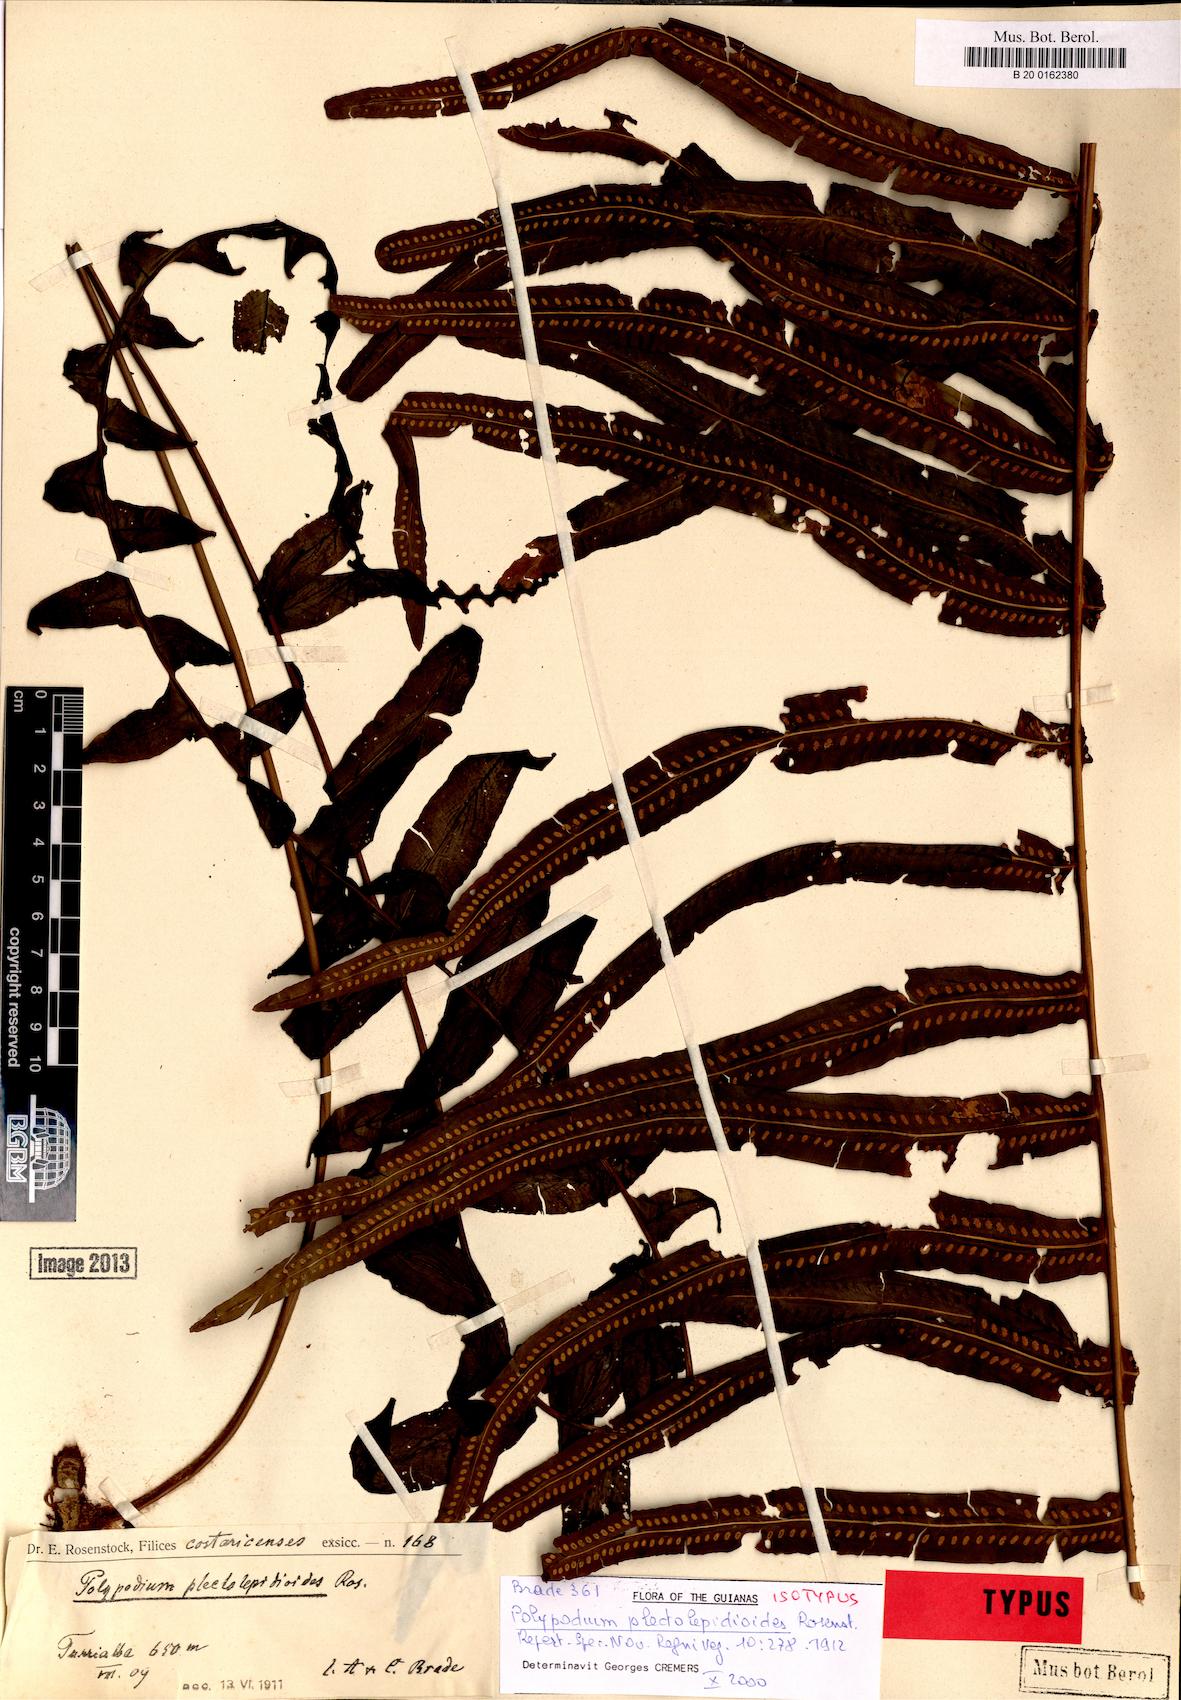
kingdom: Plantae
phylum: Tracheophyta
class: Polypodiopsida
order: Polypodiales
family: Polypodiaceae
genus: Polypodium
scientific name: Polypodium plectolepidioides
